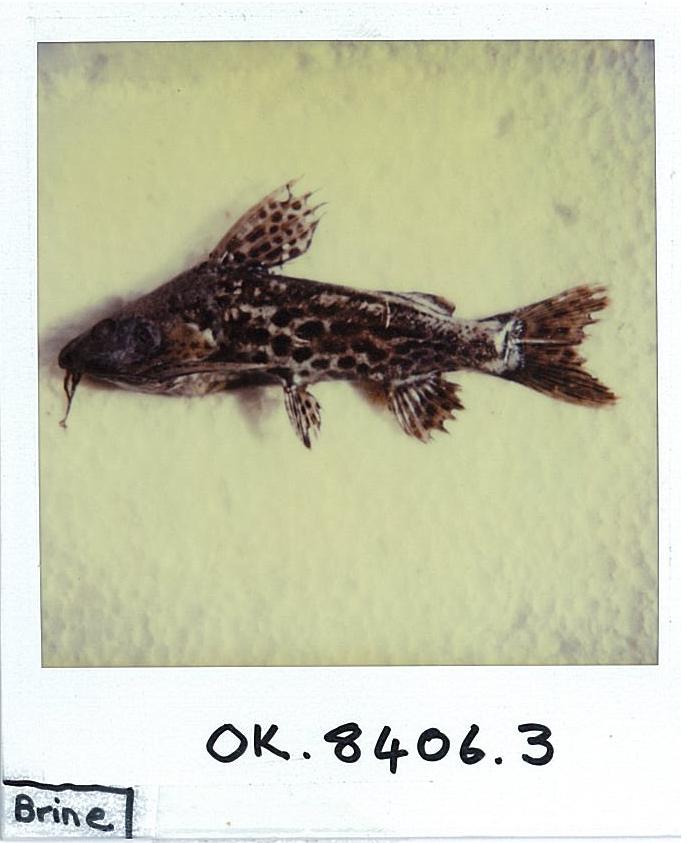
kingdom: Animalia
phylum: Chordata
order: Siluriformes
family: Mochokidae
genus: Synodontis
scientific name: Synodontis macrostigma
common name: Largespot squeaker
